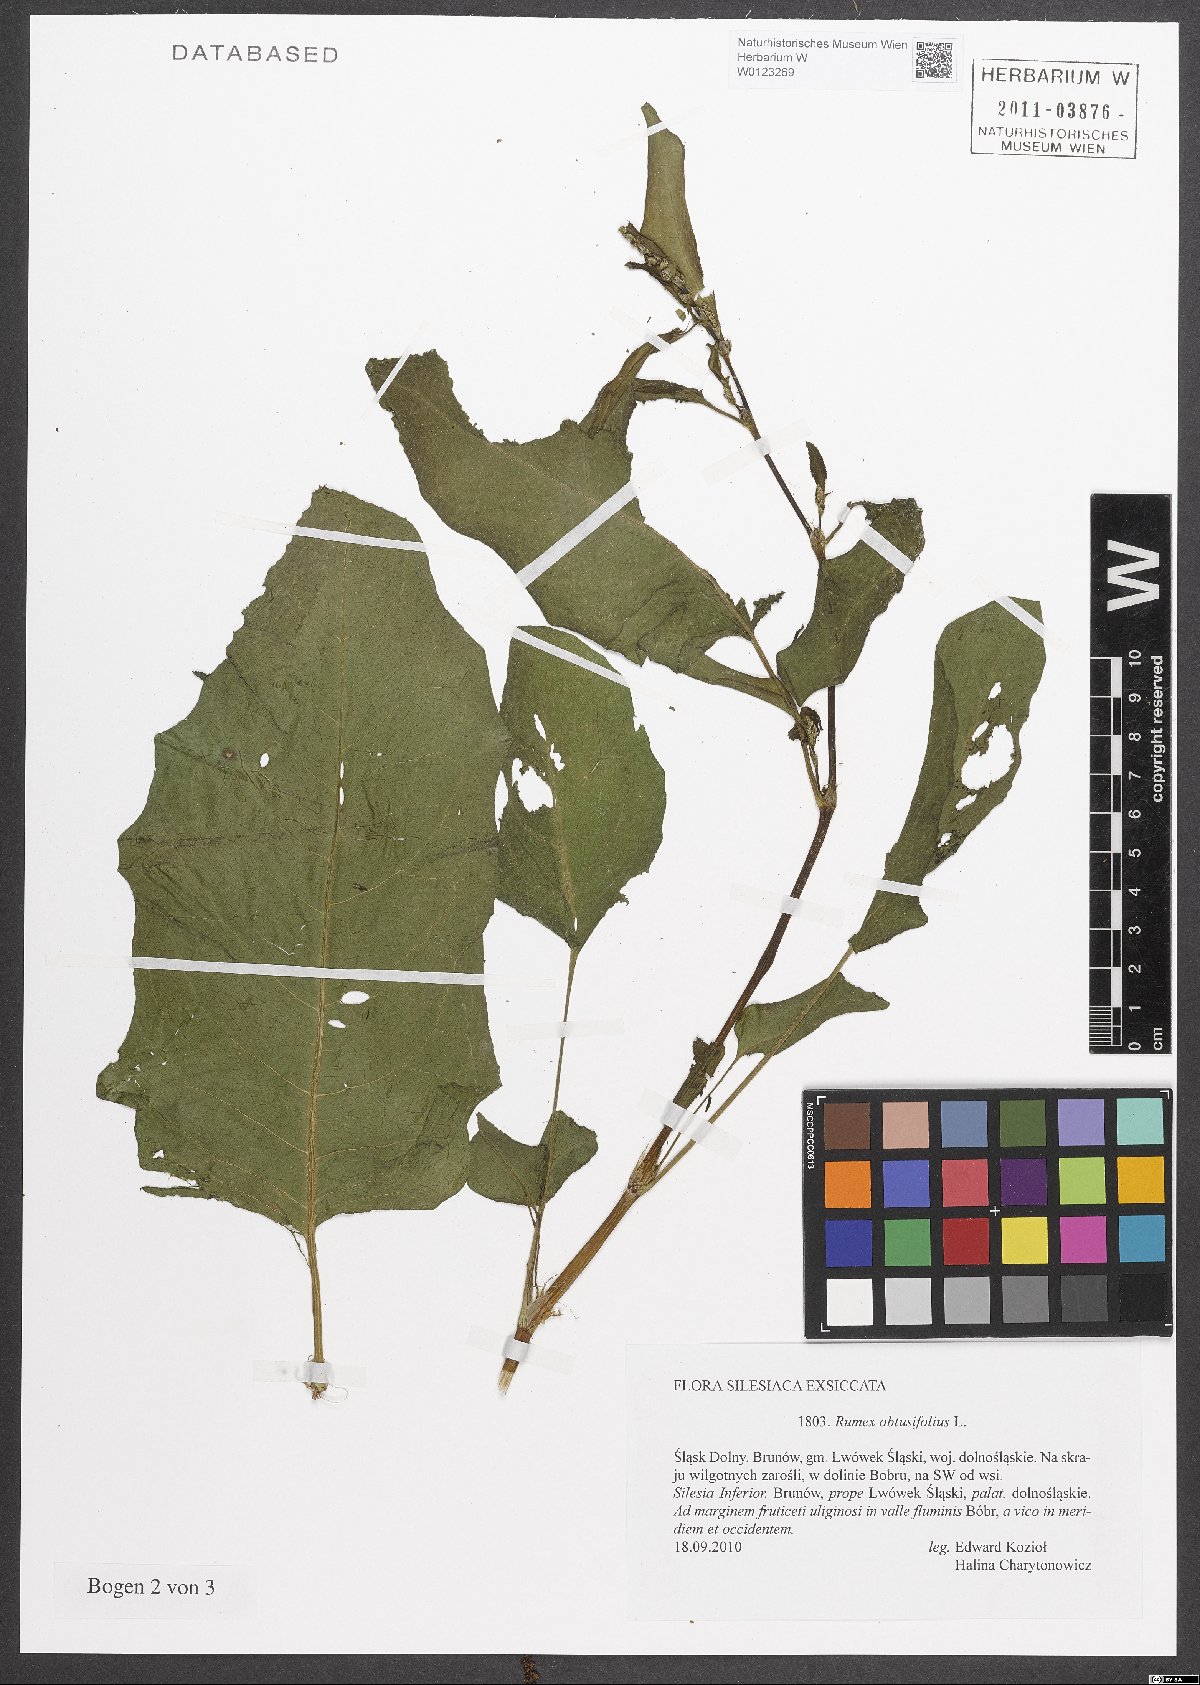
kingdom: Plantae
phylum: Tracheophyta
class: Magnoliopsida
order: Caryophyllales
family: Polygonaceae
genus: Rumex
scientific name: Rumex obtusifolius
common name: Bitter dock
